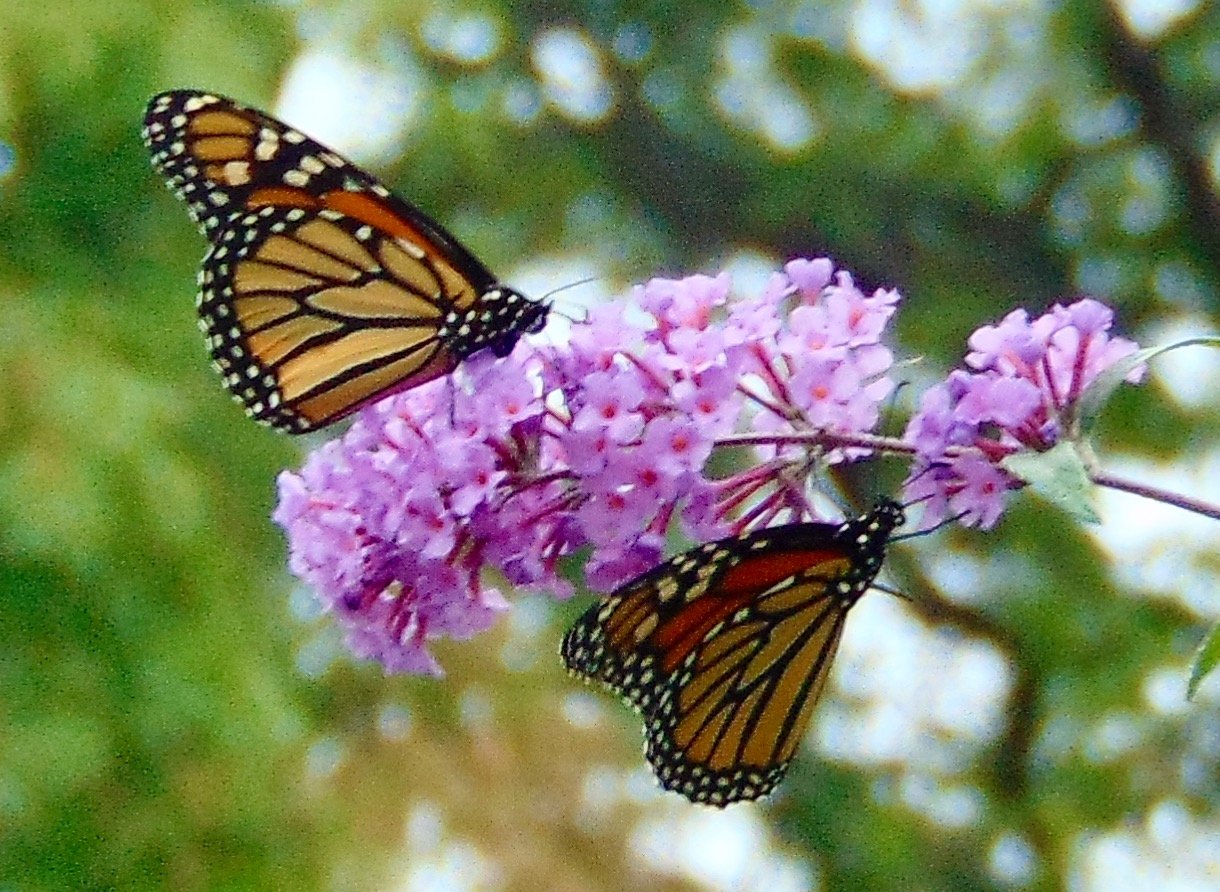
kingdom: Animalia
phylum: Arthropoda
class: Insecta
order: Lepidoptera
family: Nymphalidae
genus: Danaus
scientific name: Danaus plexippus
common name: Monarch
